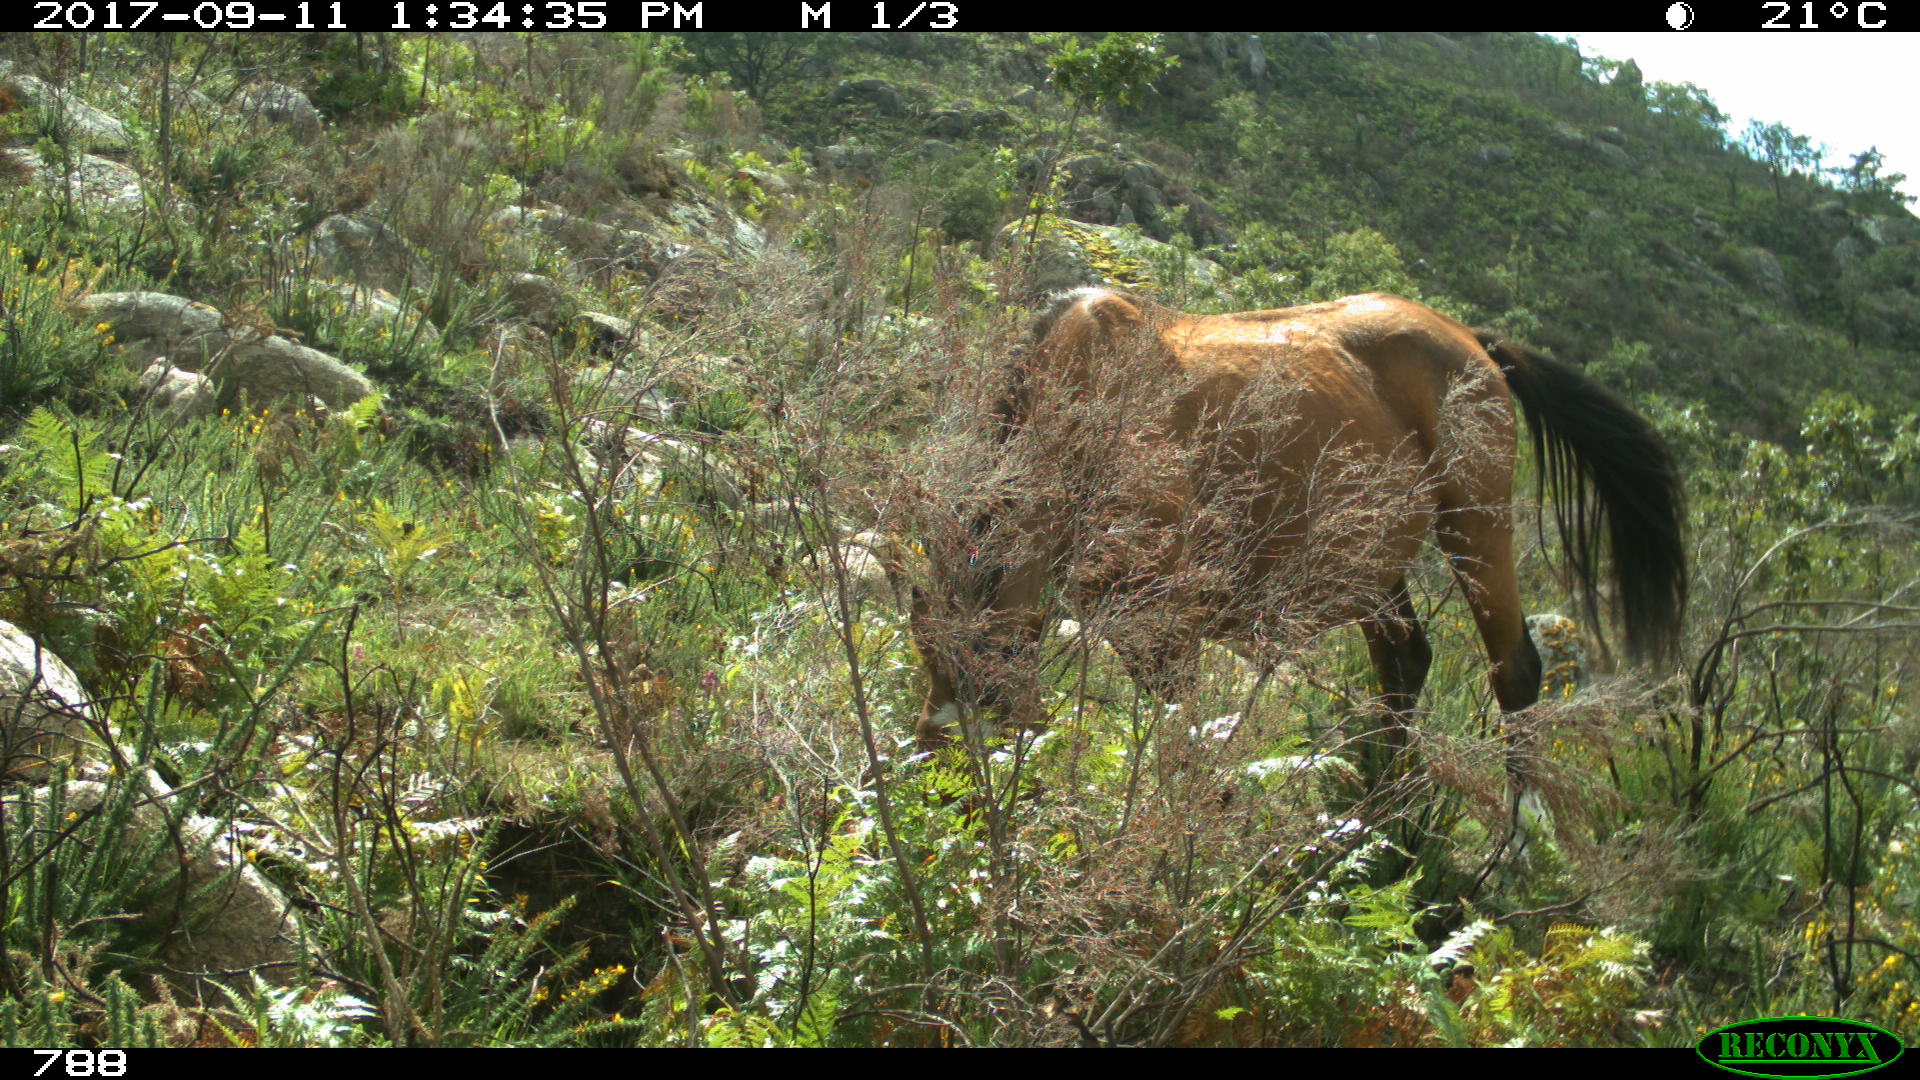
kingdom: Animalia
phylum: Chordata
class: Mammalia
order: Perissodactyla
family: Equidae
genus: Equus
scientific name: Equus caballus
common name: Horse
